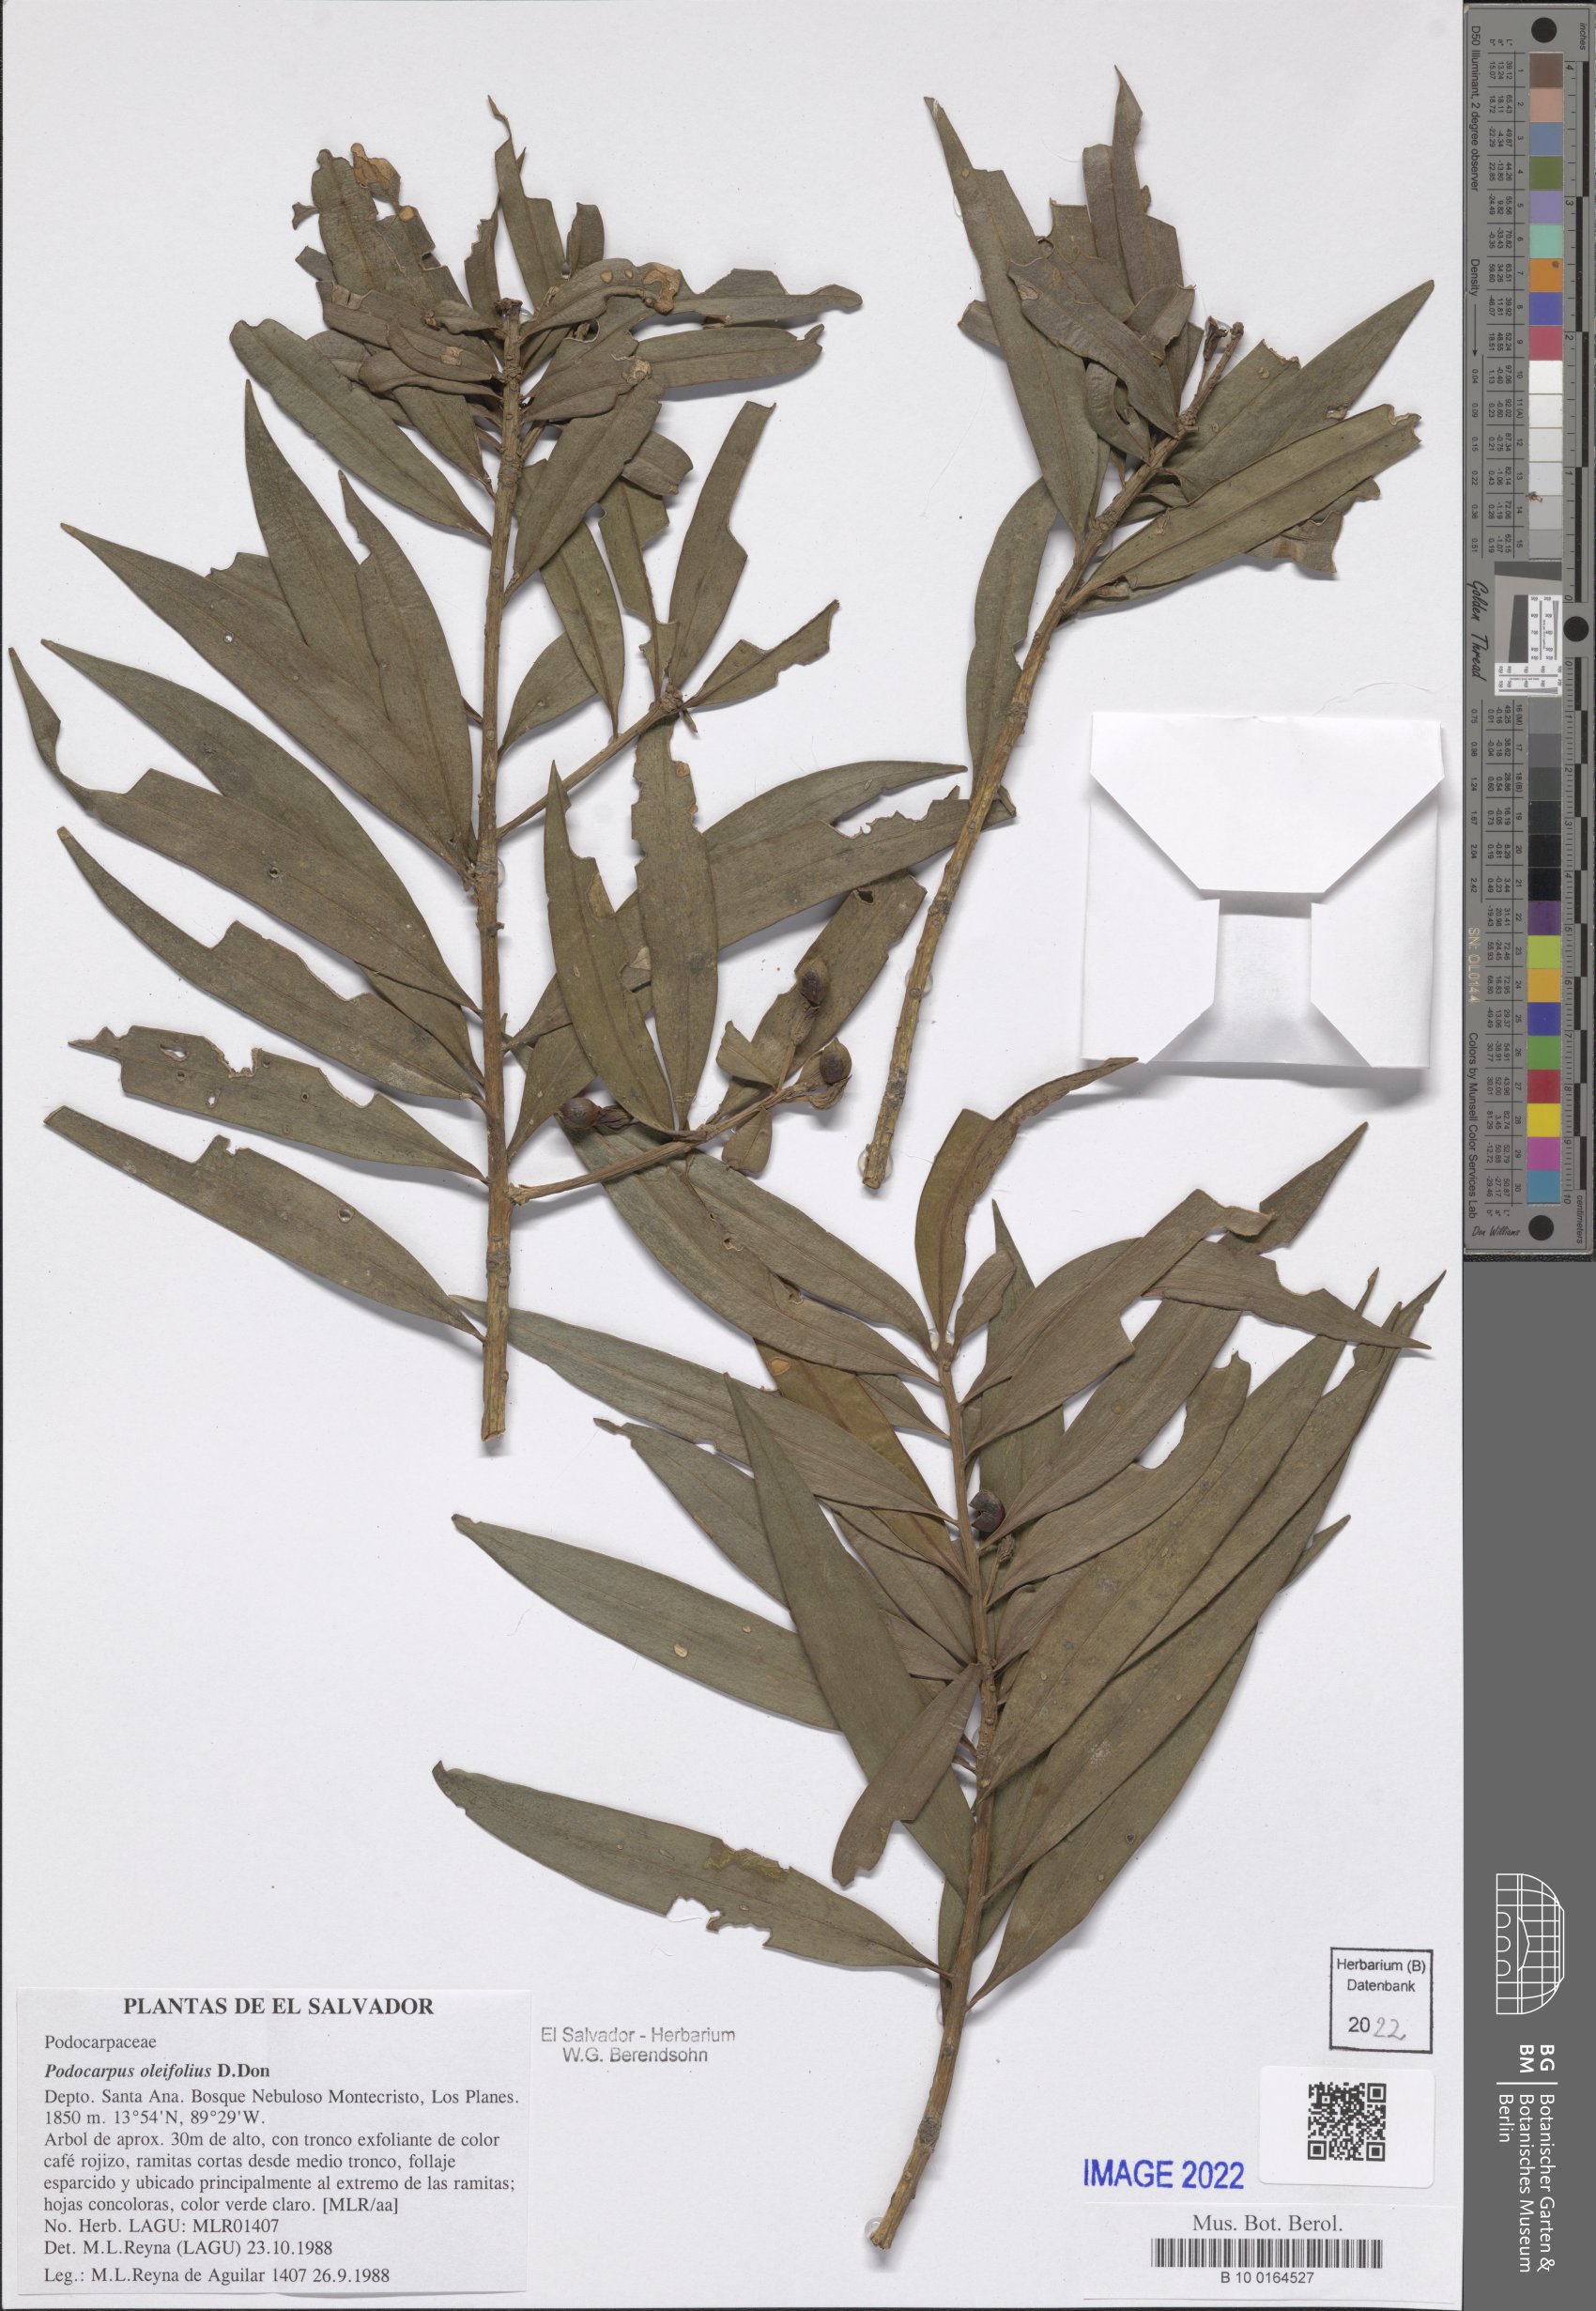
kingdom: Plantae
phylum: Tracheophyta
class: Pinopsida
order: Pinales
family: Podocarpaceae
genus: Podocarpus
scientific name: Podocarpus oleifolius
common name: Olive-leaf podoberry
